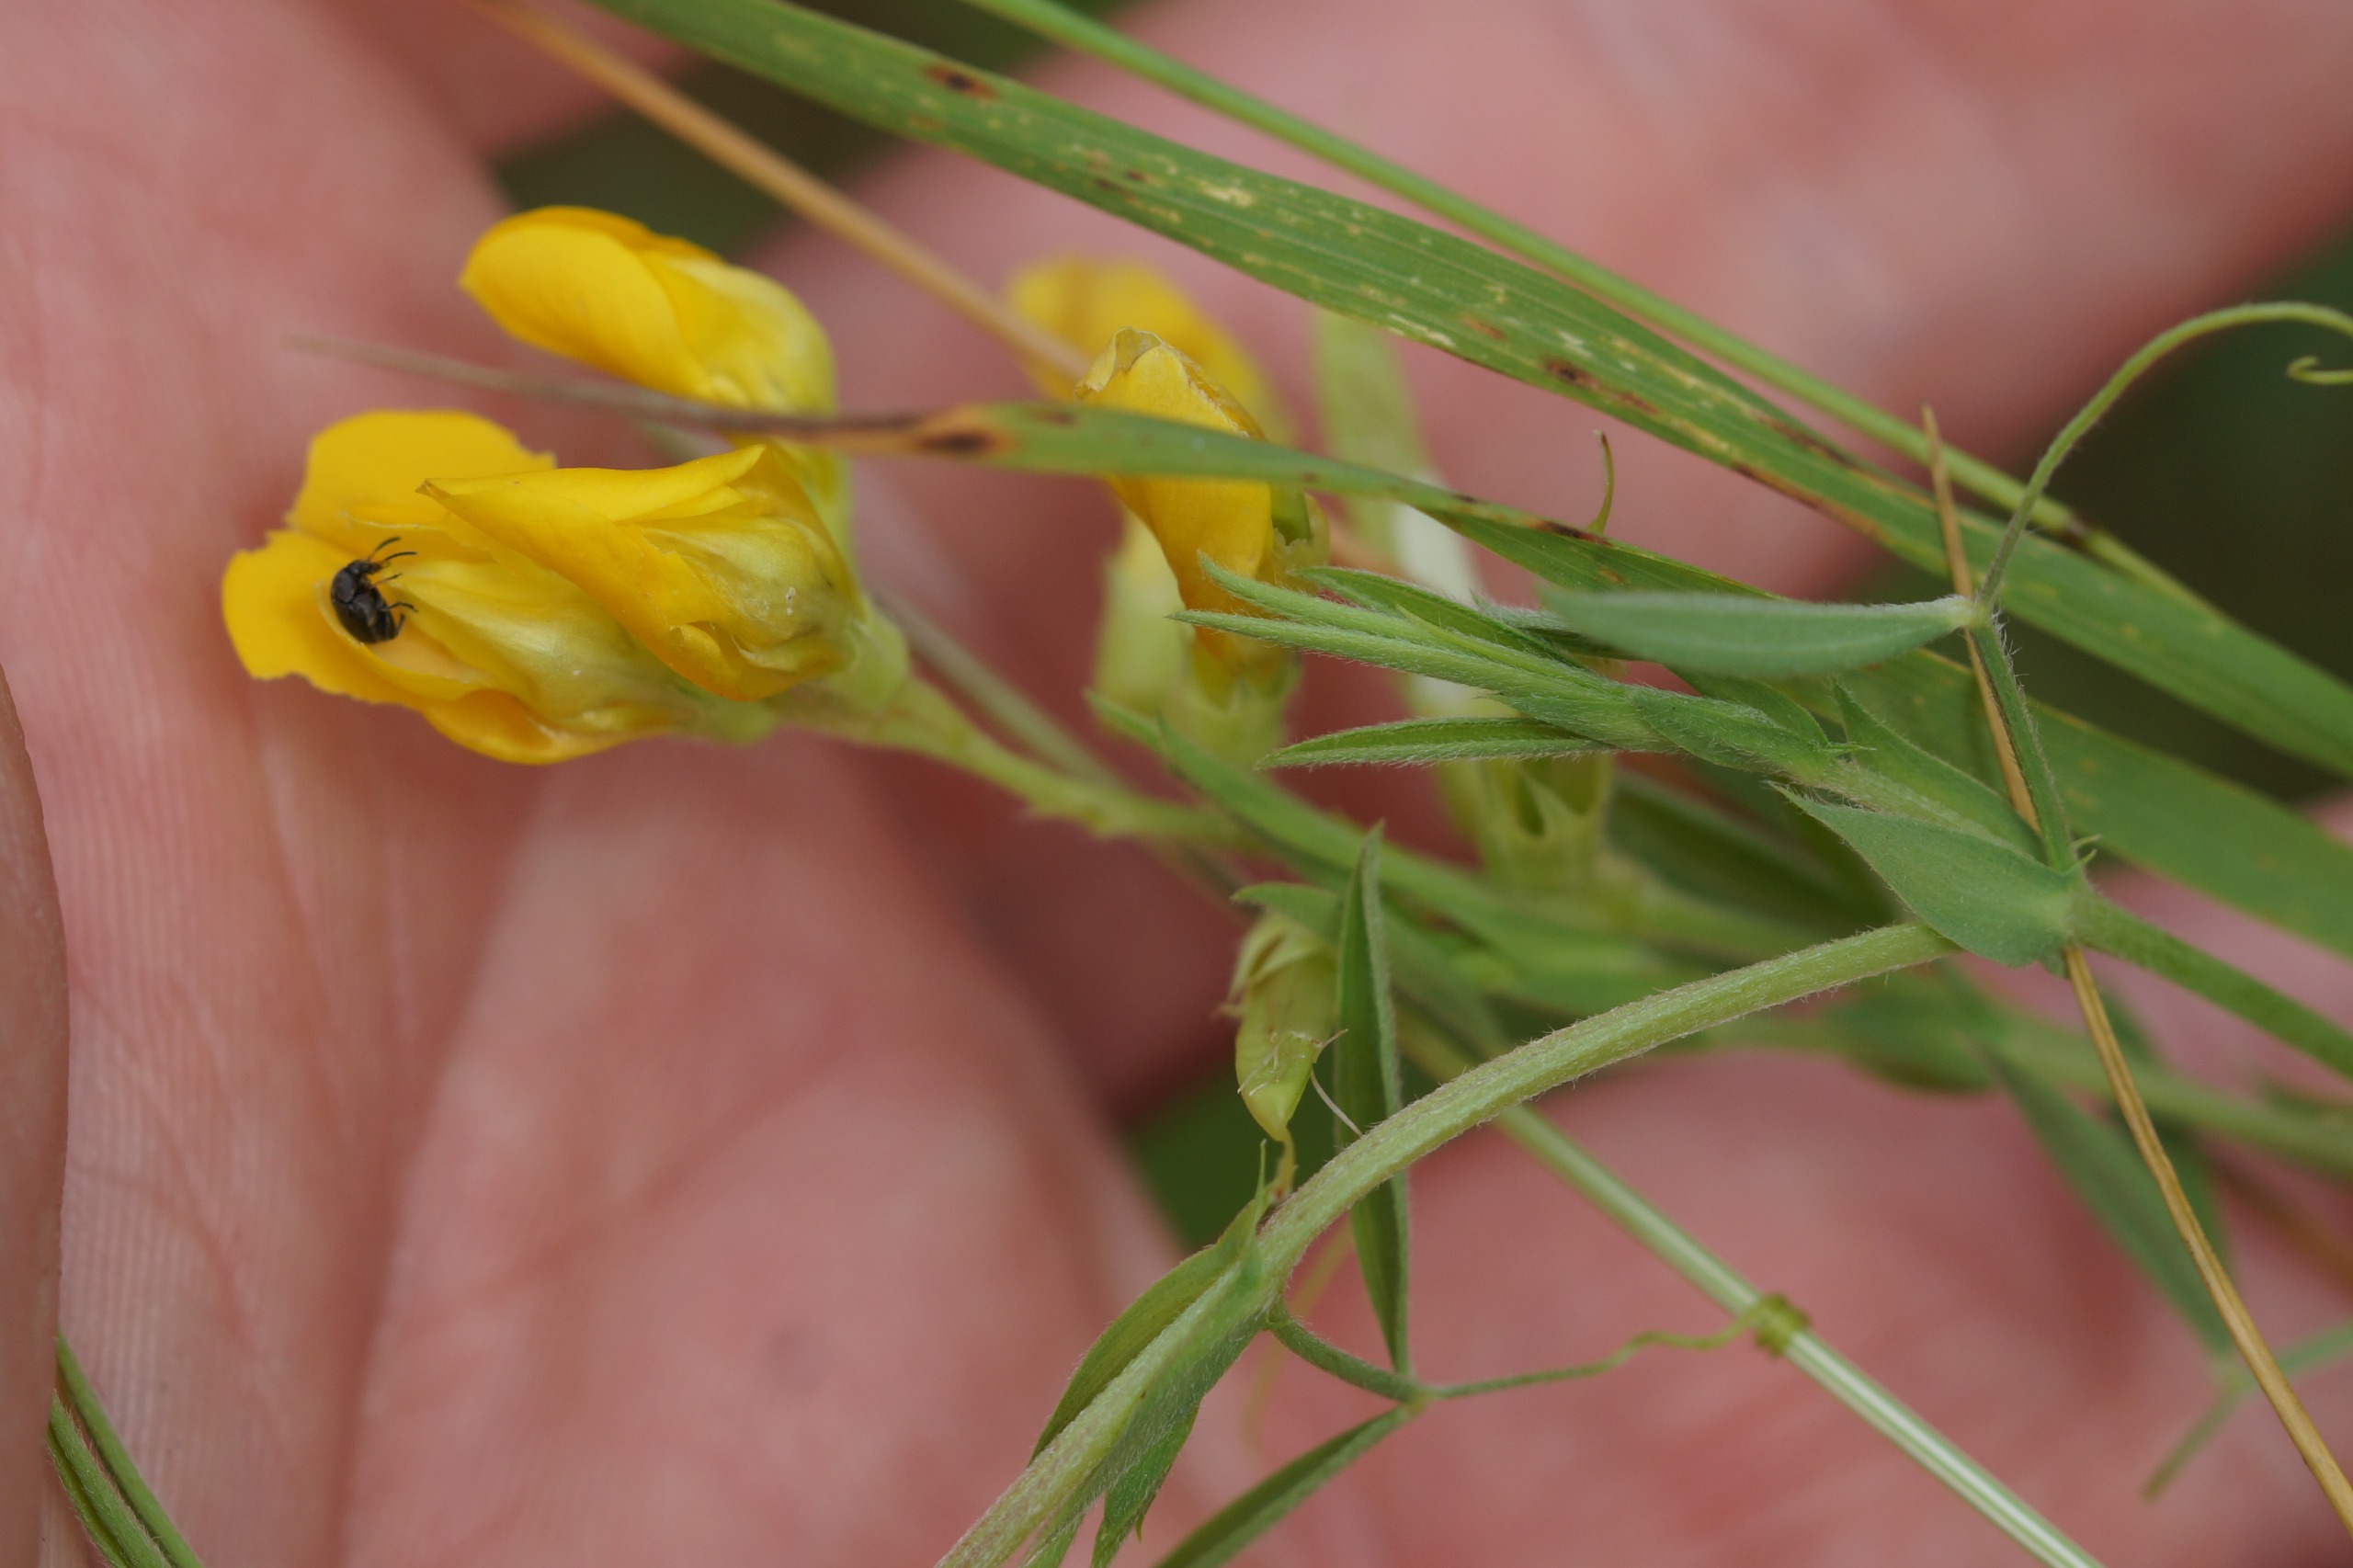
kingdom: Plantae
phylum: Tracheophyta
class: Magnoliopsida
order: Fabales
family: Fabaceae
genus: Lathyrus
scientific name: Lathyrus pratensis
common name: Gul fladbælg
